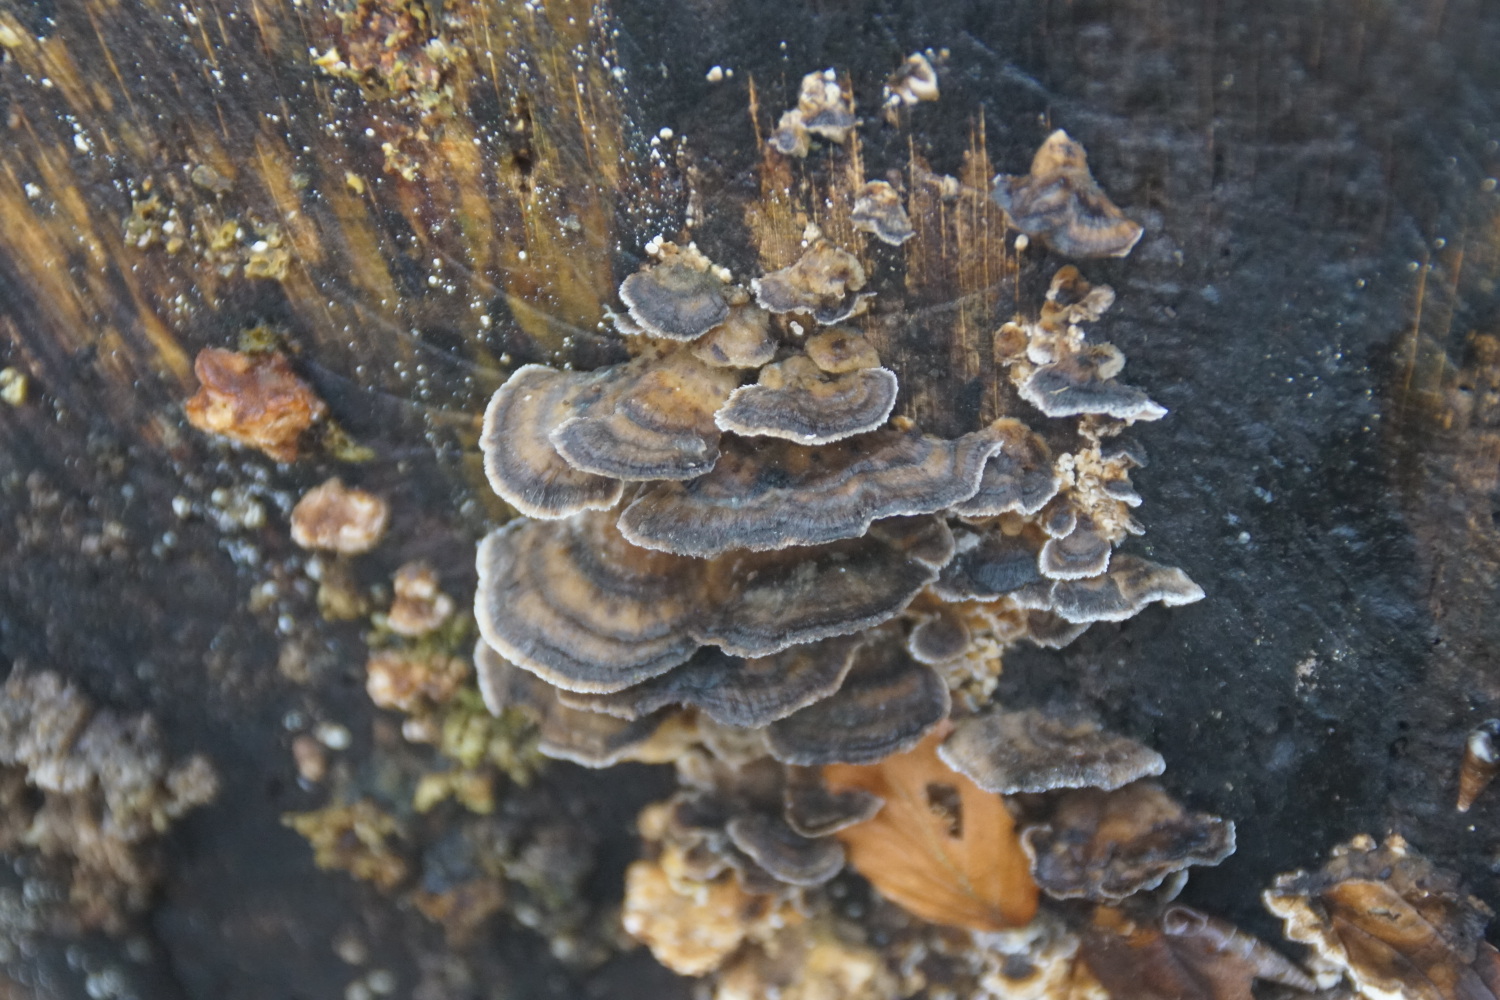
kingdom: Fungi
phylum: Basidiomycota
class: Agaricomycetes
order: Polyporales
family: Phanerochaetaceae
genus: Bjerkandera
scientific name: Bjerkandera adusta
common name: sveden sodporesvamp
